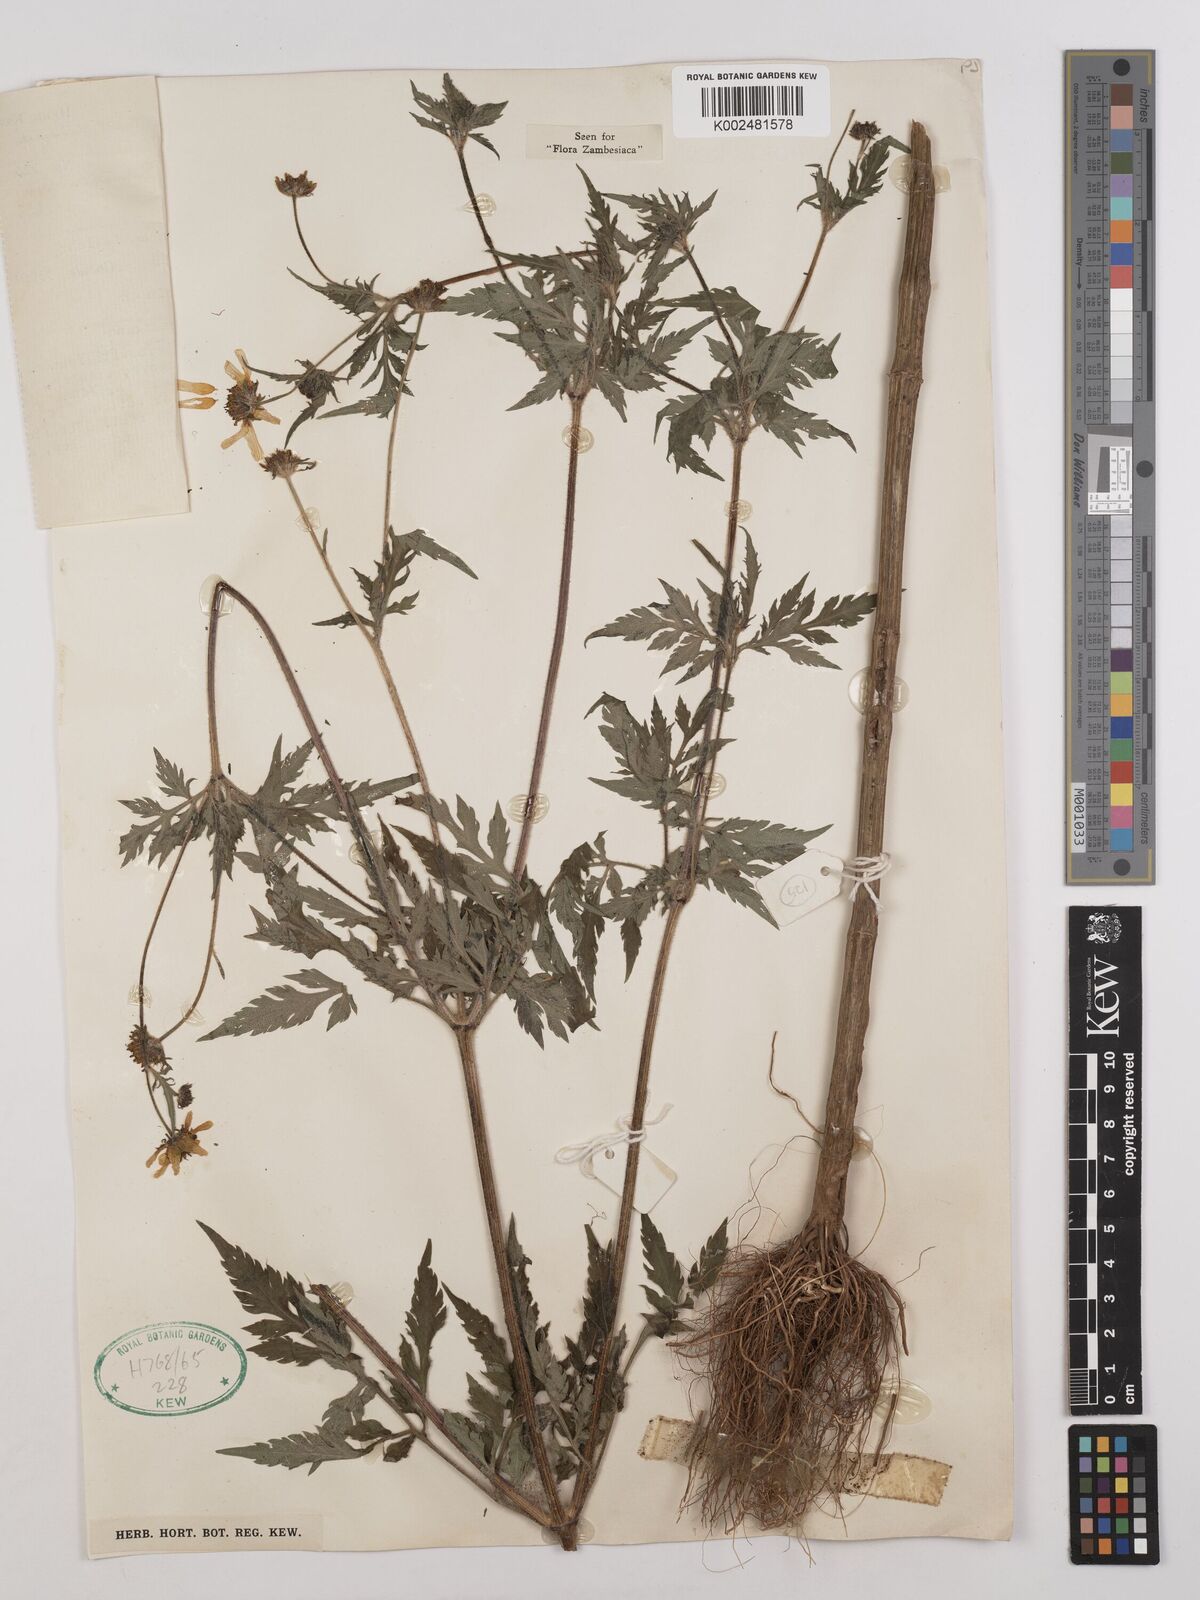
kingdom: Plantae
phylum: Tracheophyta
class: Magnoliopsida
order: Asterales
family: Asteraceae
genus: Bidens
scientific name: Bidens schimperi
